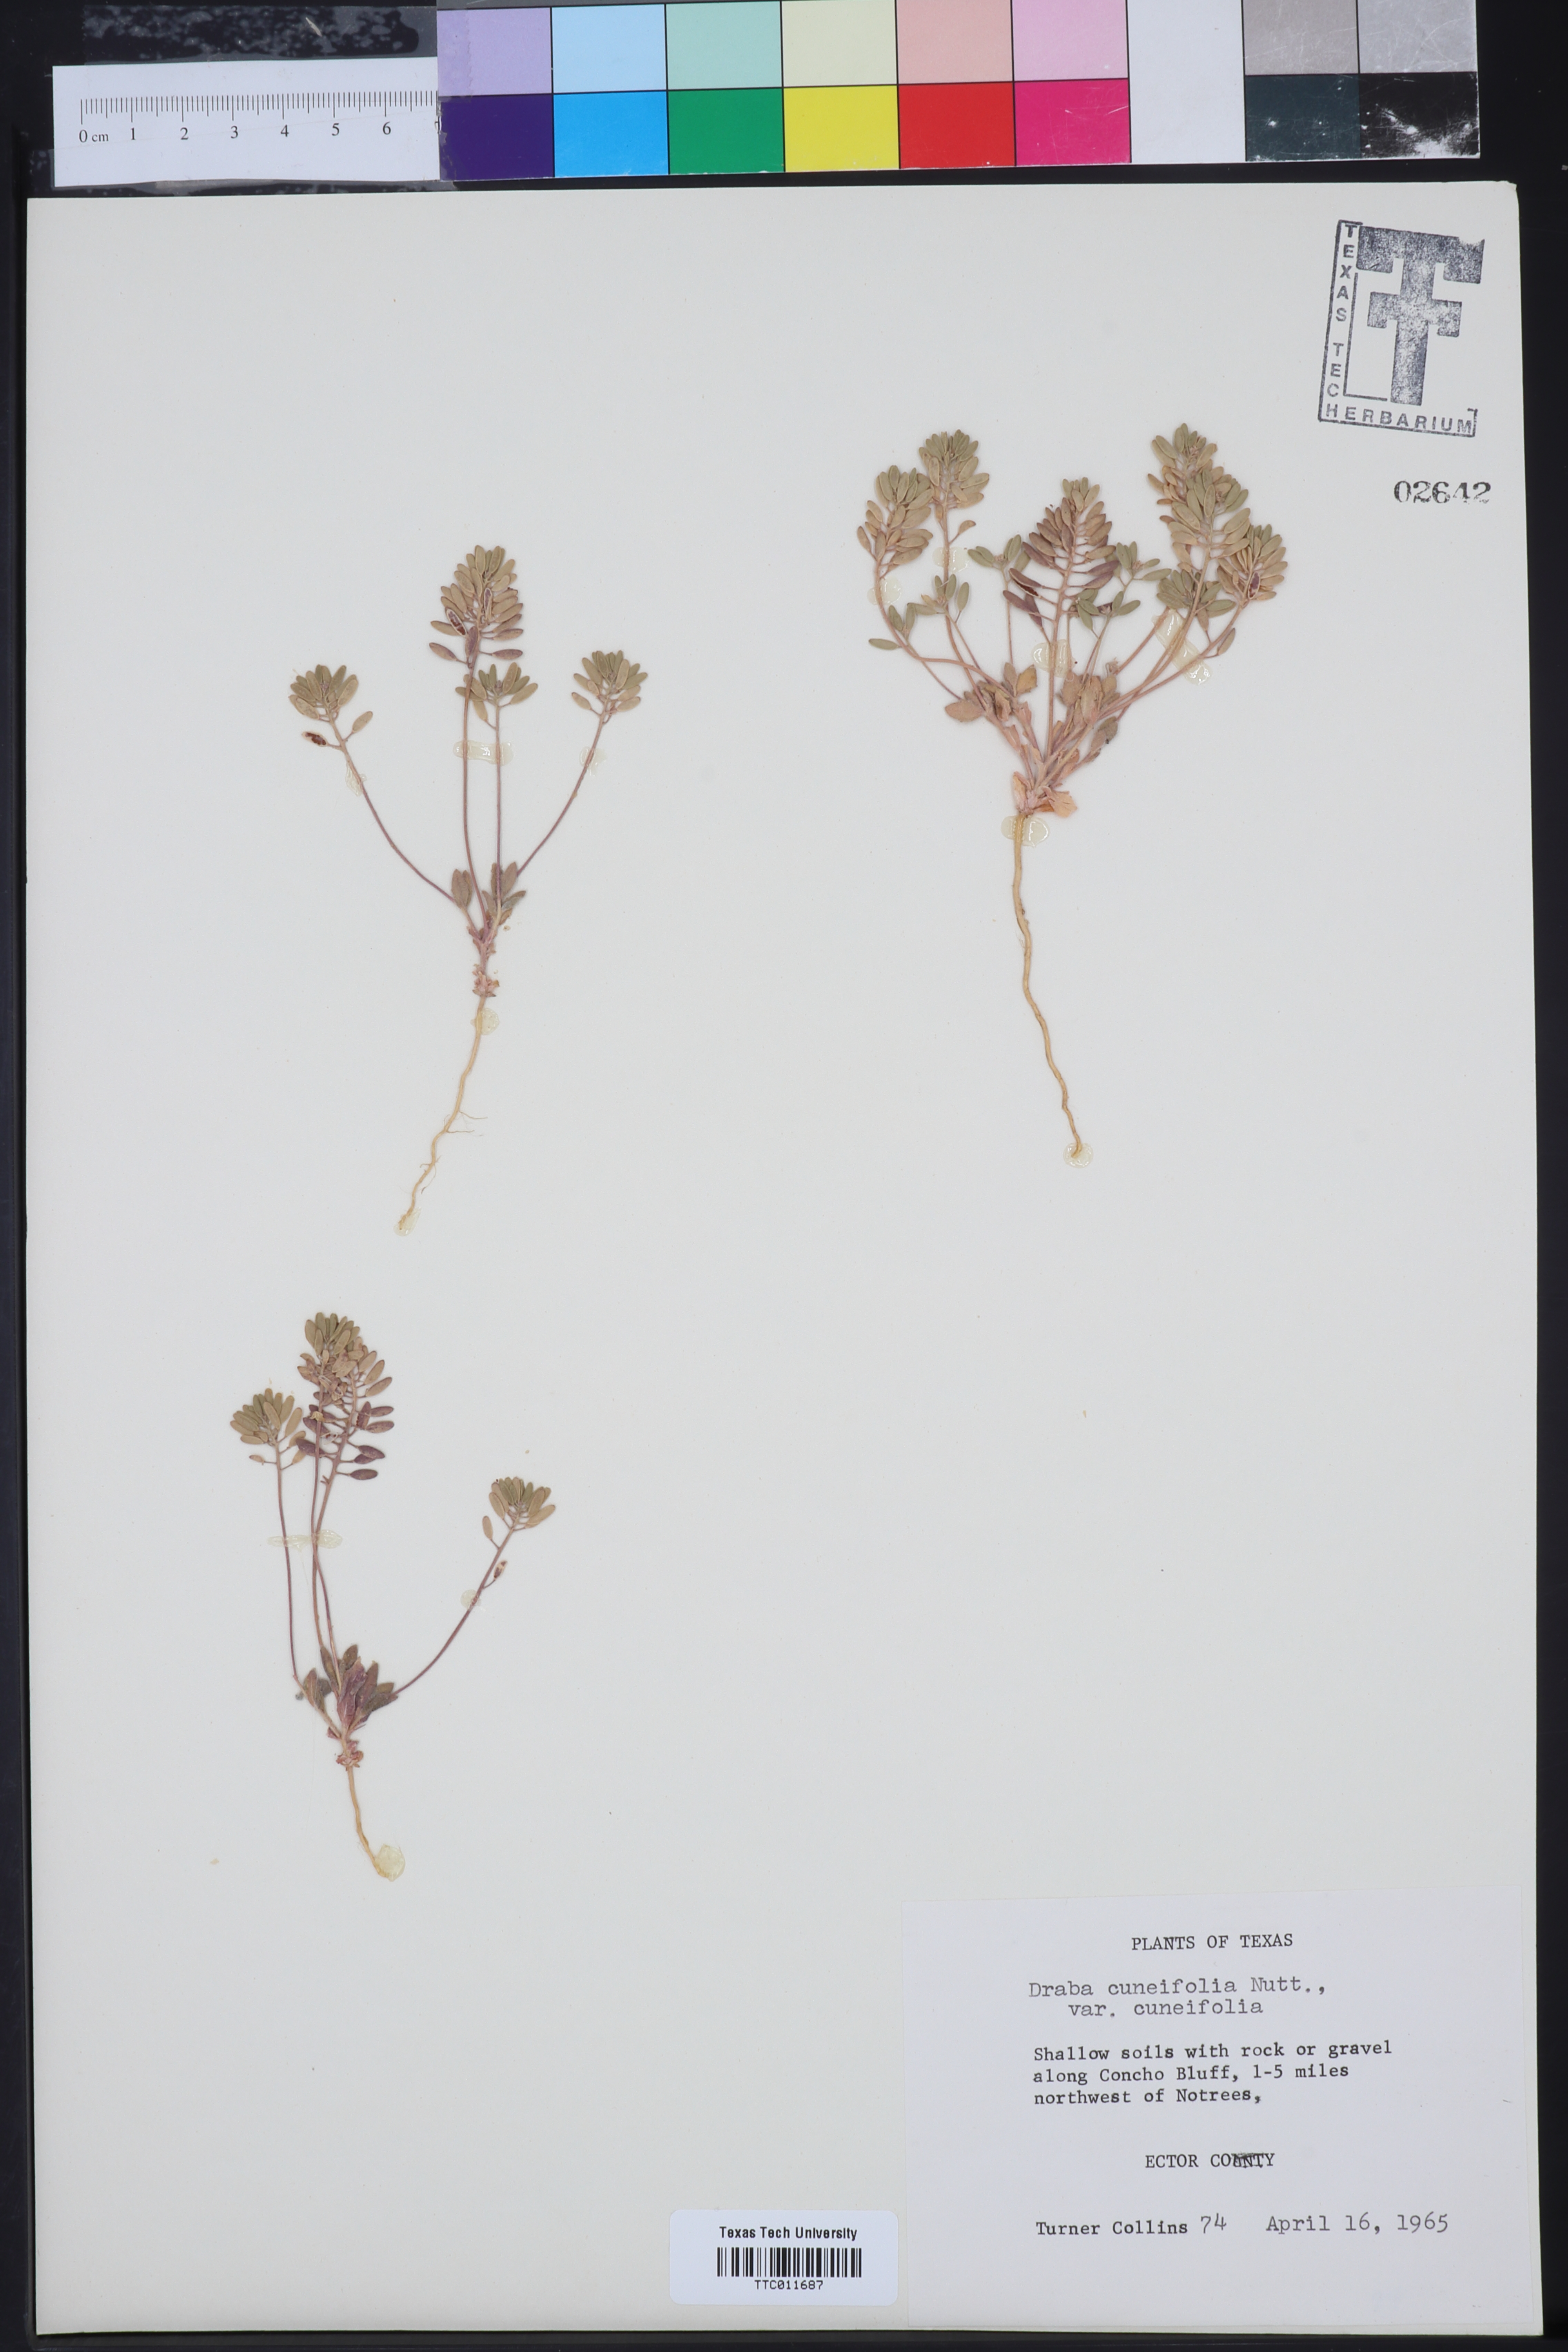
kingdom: Plantae
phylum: Tracheophyta
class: Magnoliopsida
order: Brassicales
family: Brassicaceae
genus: Tomostima
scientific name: Tomostima cuneifolia
